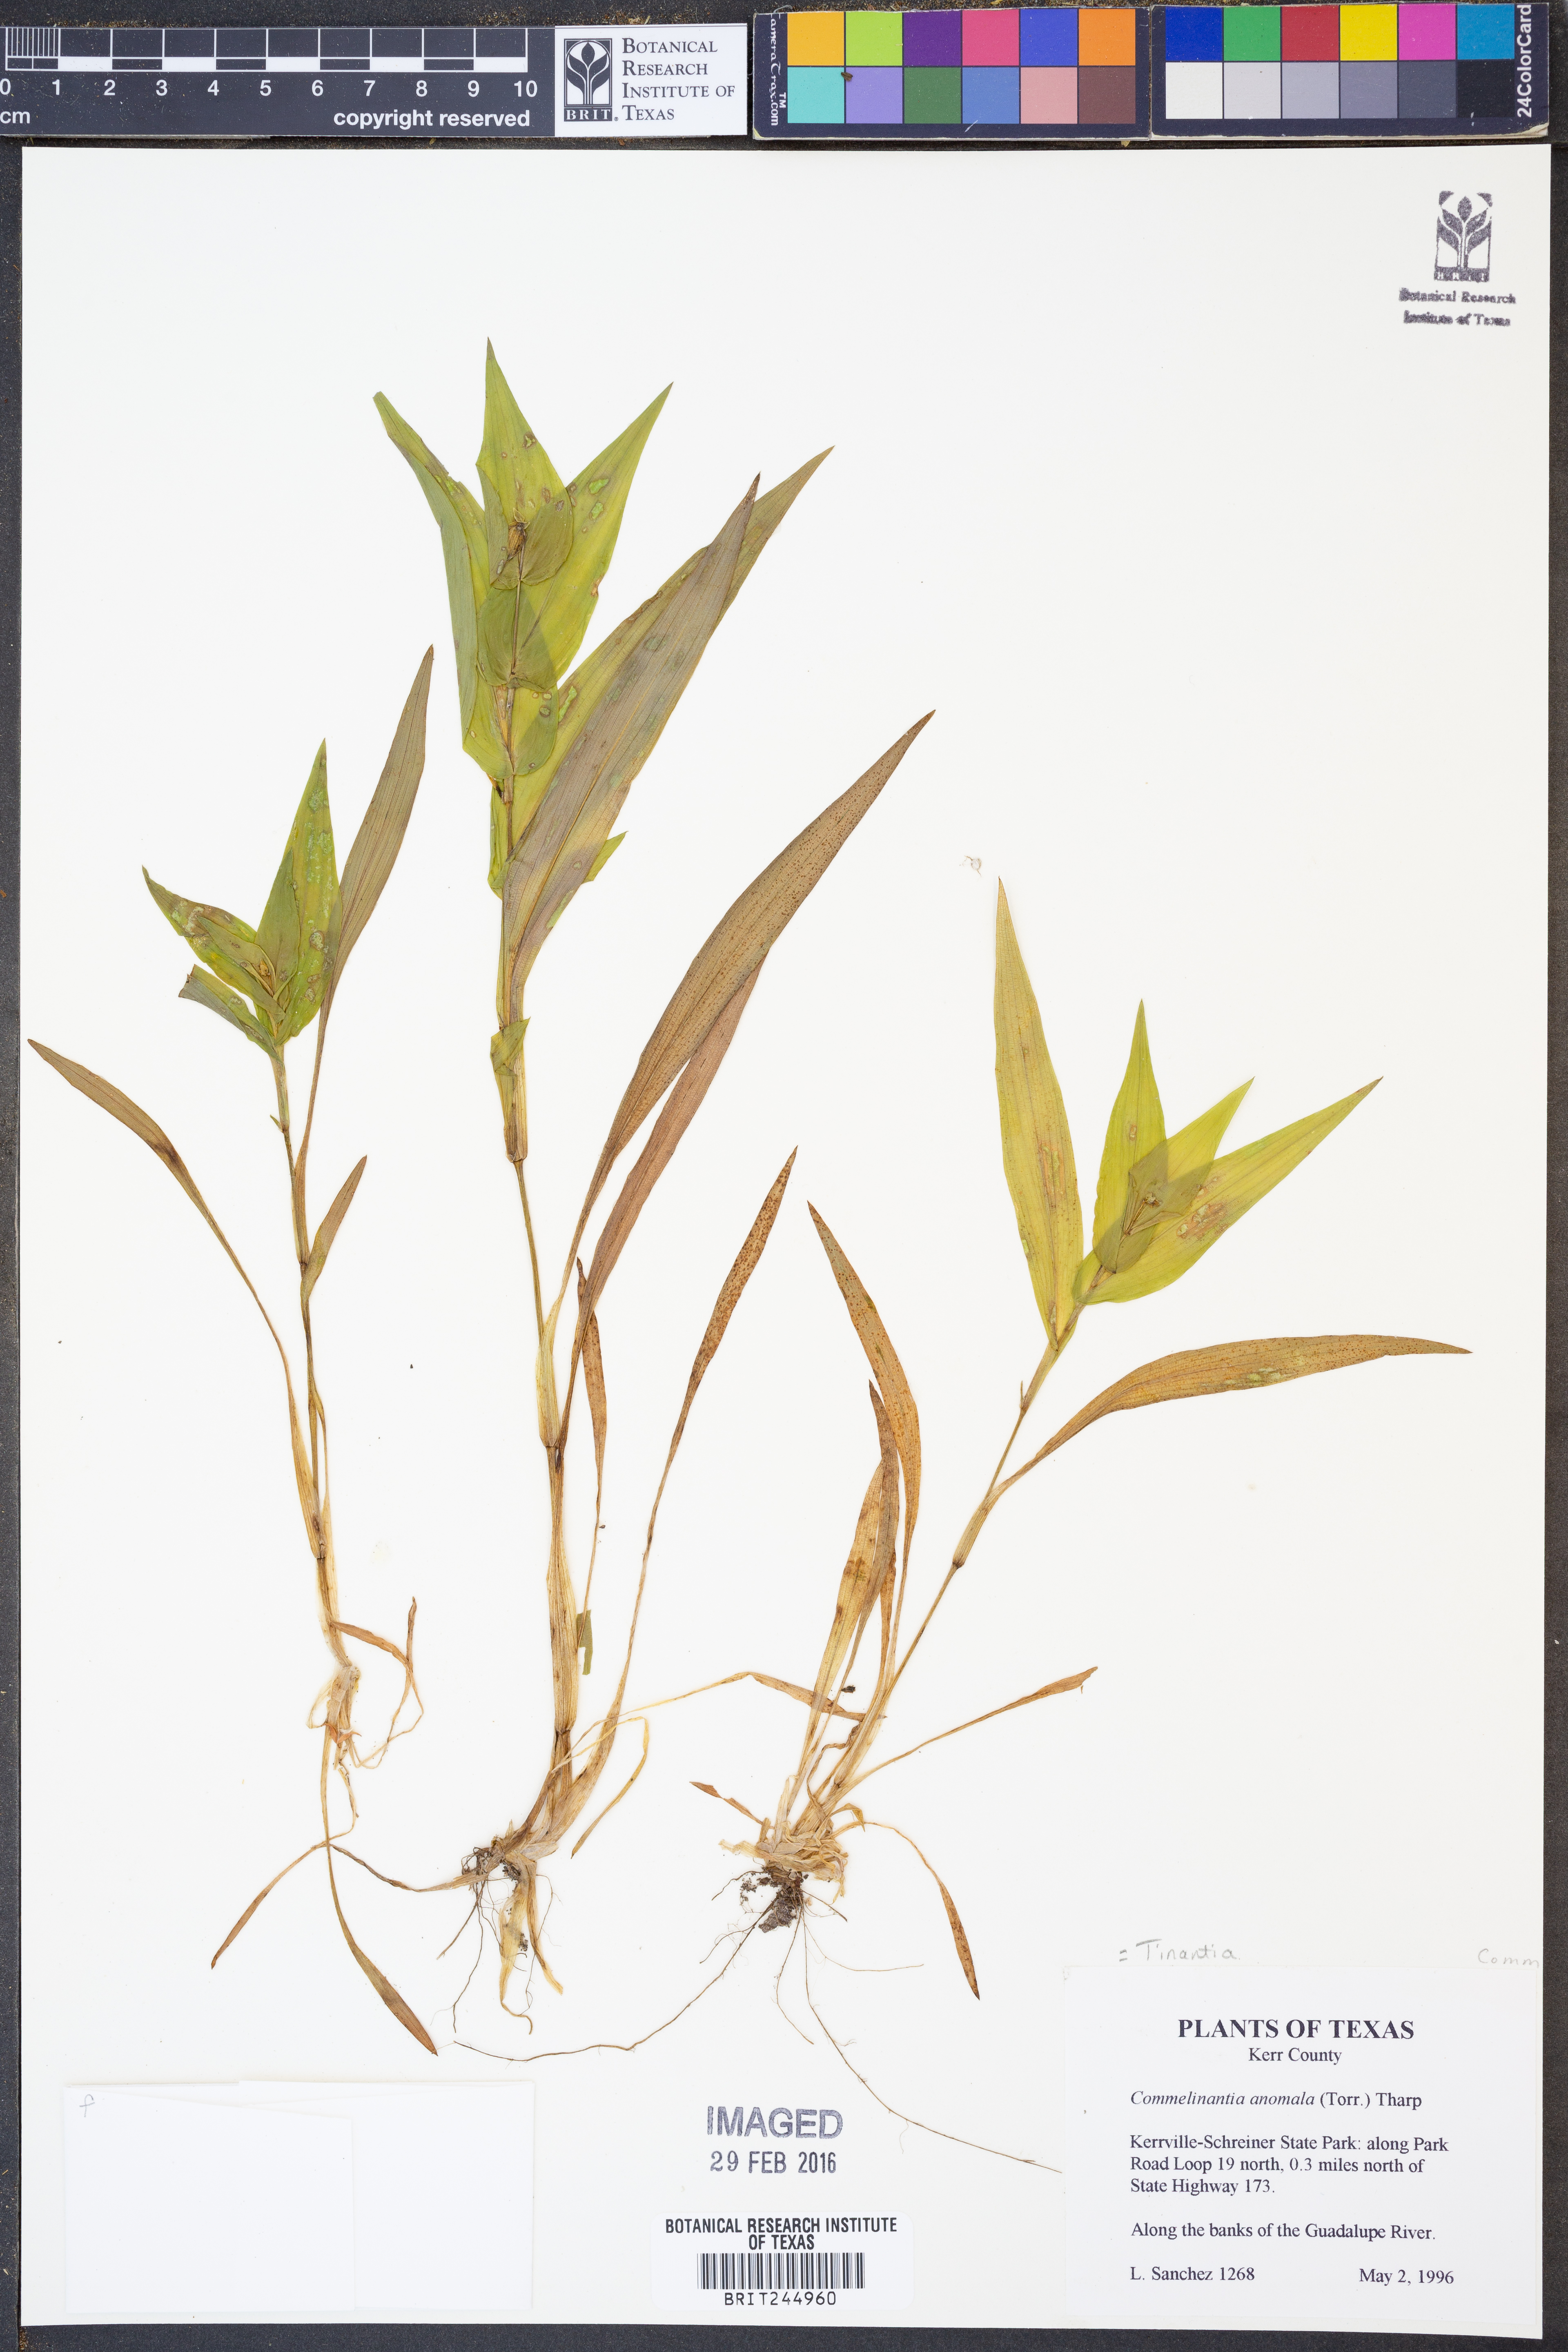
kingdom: Plantae
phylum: Tracheophyta
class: Liliopsida
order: Commelinales
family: Commelinaceae
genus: Tinantia
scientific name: Tinantia anomala
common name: False dayflower
